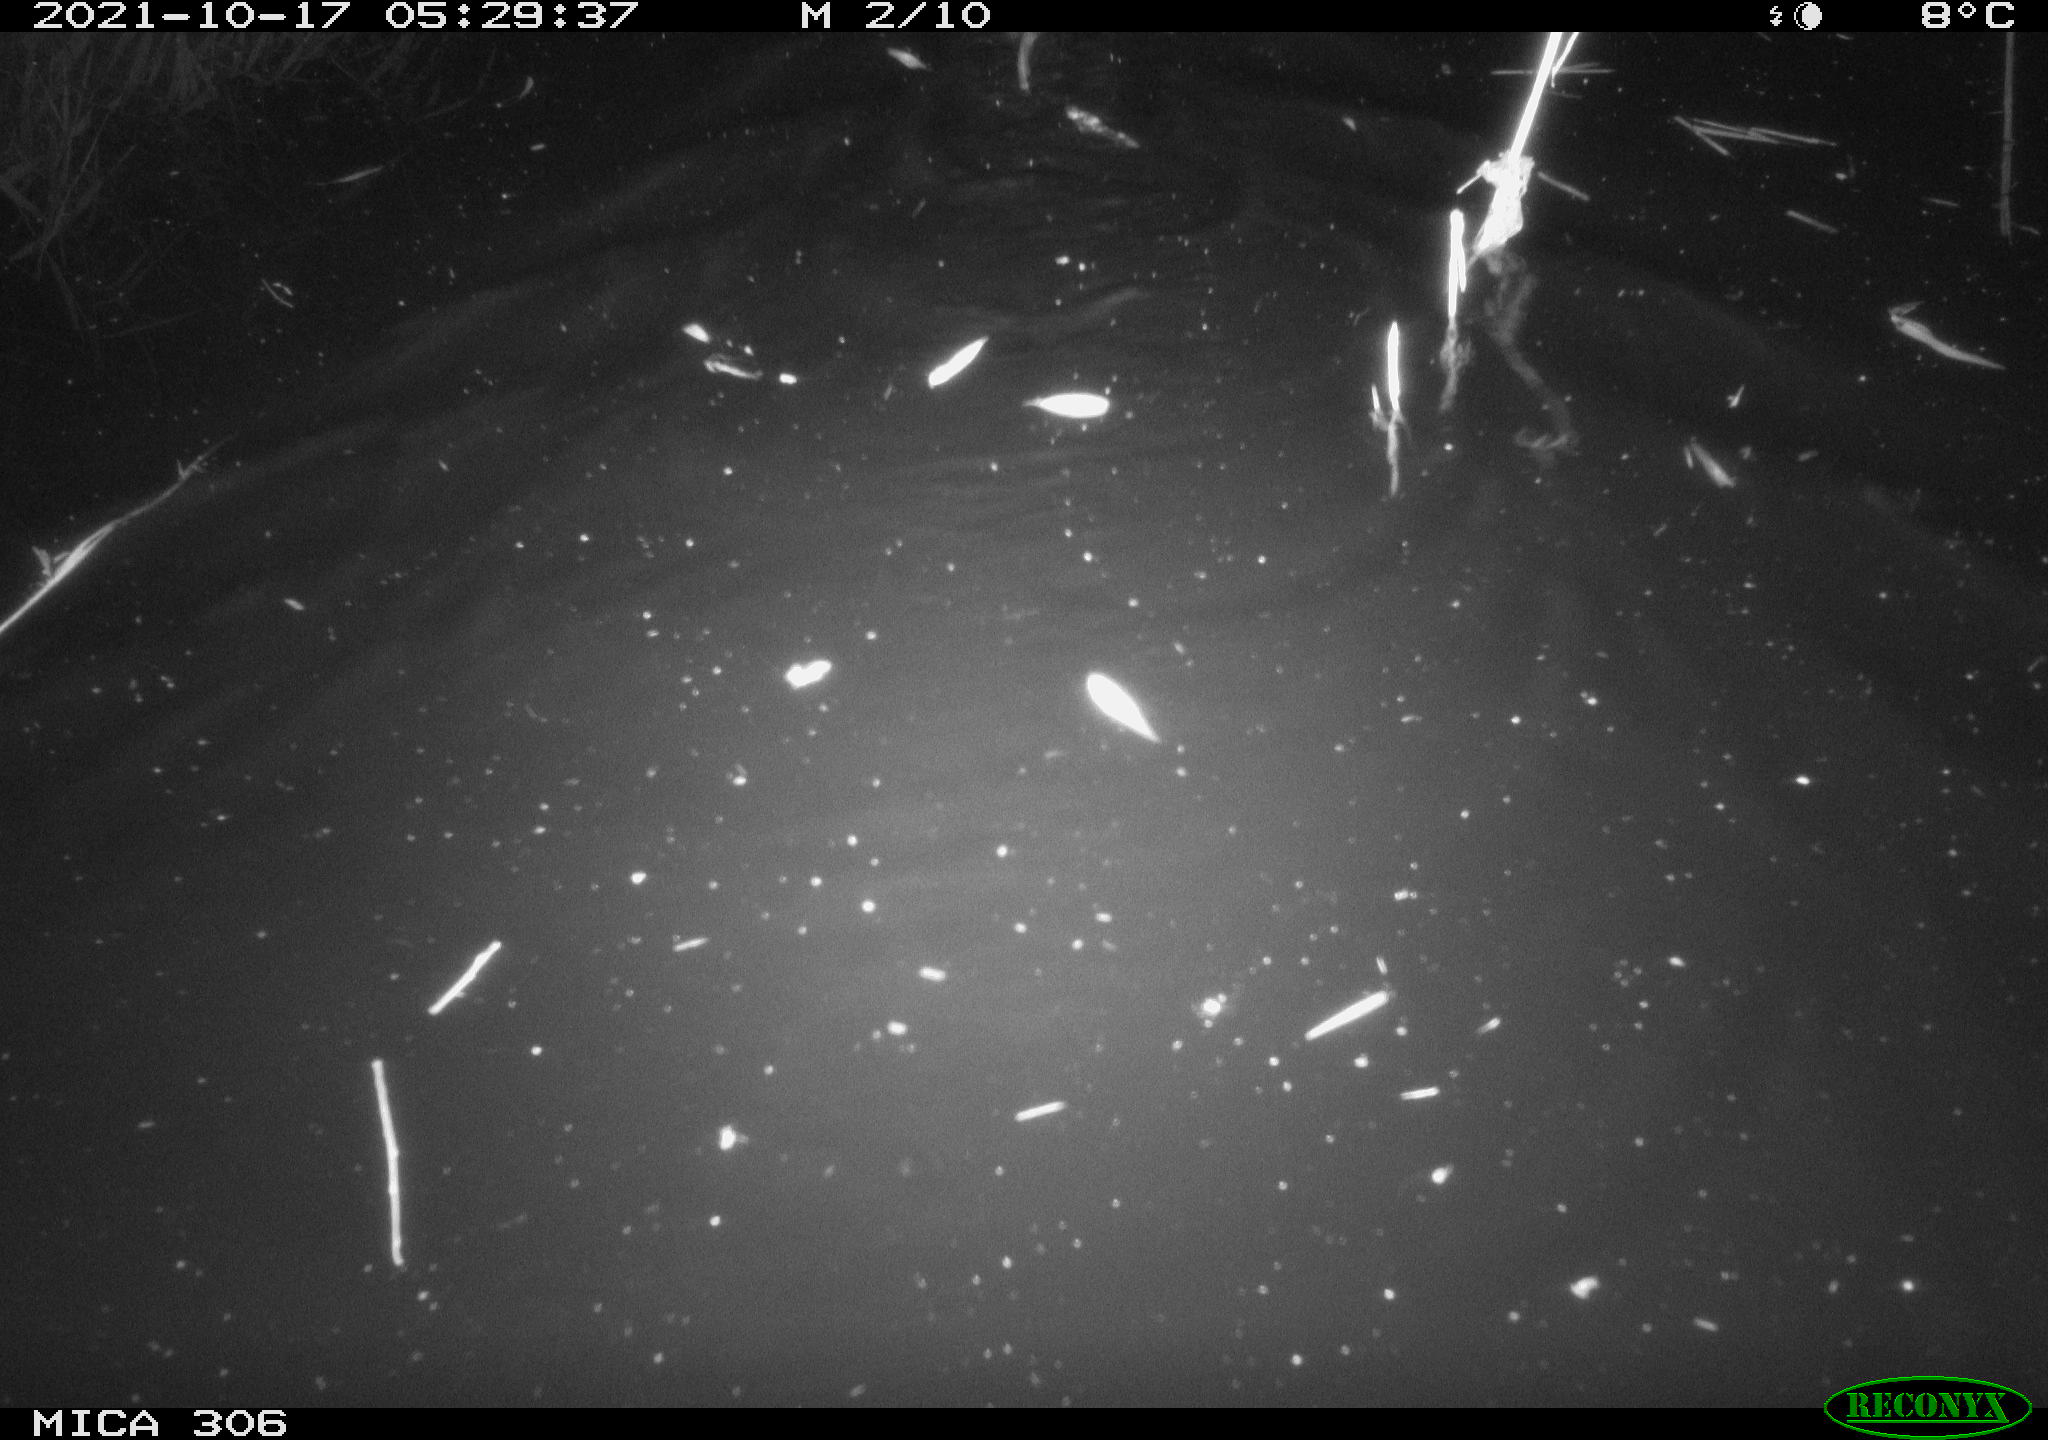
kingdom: Animalia
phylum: Chordata
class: Mammalia
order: Rodentia
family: Cricetidae
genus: Ondatra
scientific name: Ondatra zibethicus
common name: Muskrat
